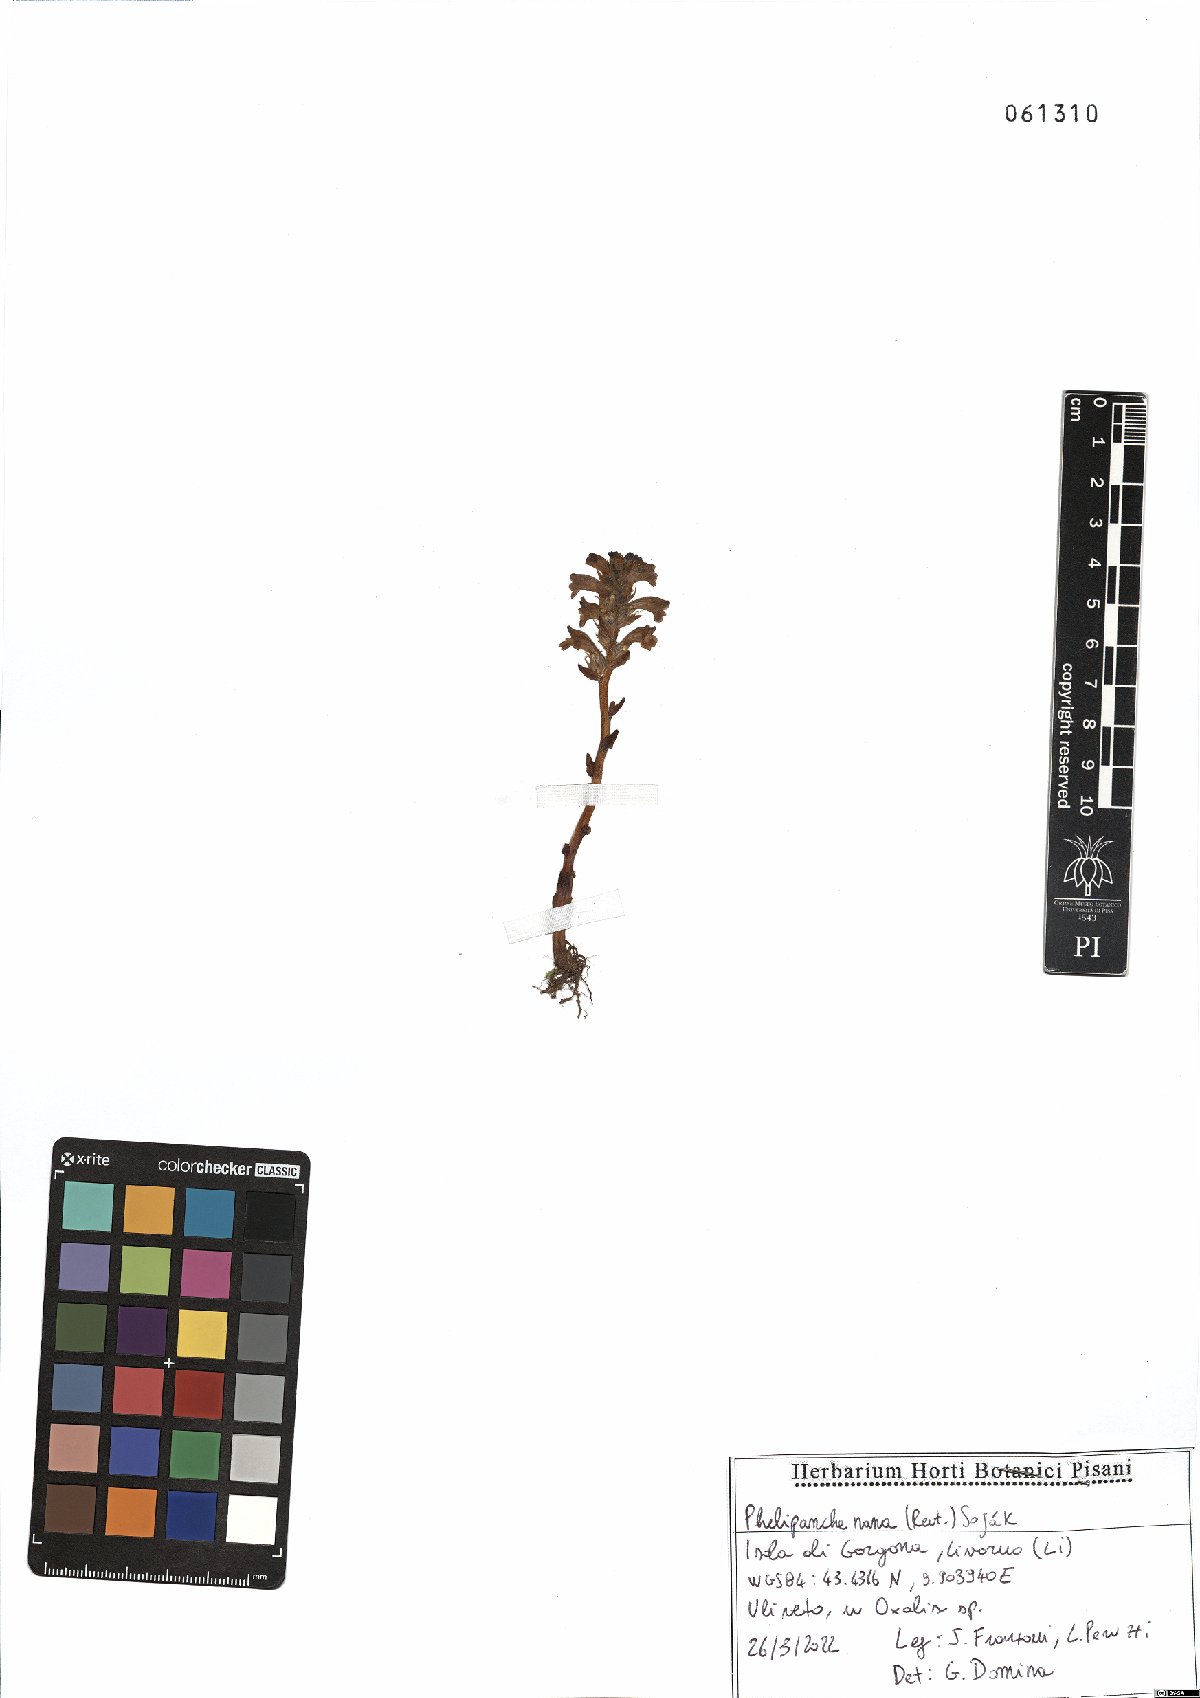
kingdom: Plantae
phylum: Tracheophyta
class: Magnoliopsida
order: Lamiales
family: Orobanchaceae
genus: Phelipanche
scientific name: Phelipanche mutelii
